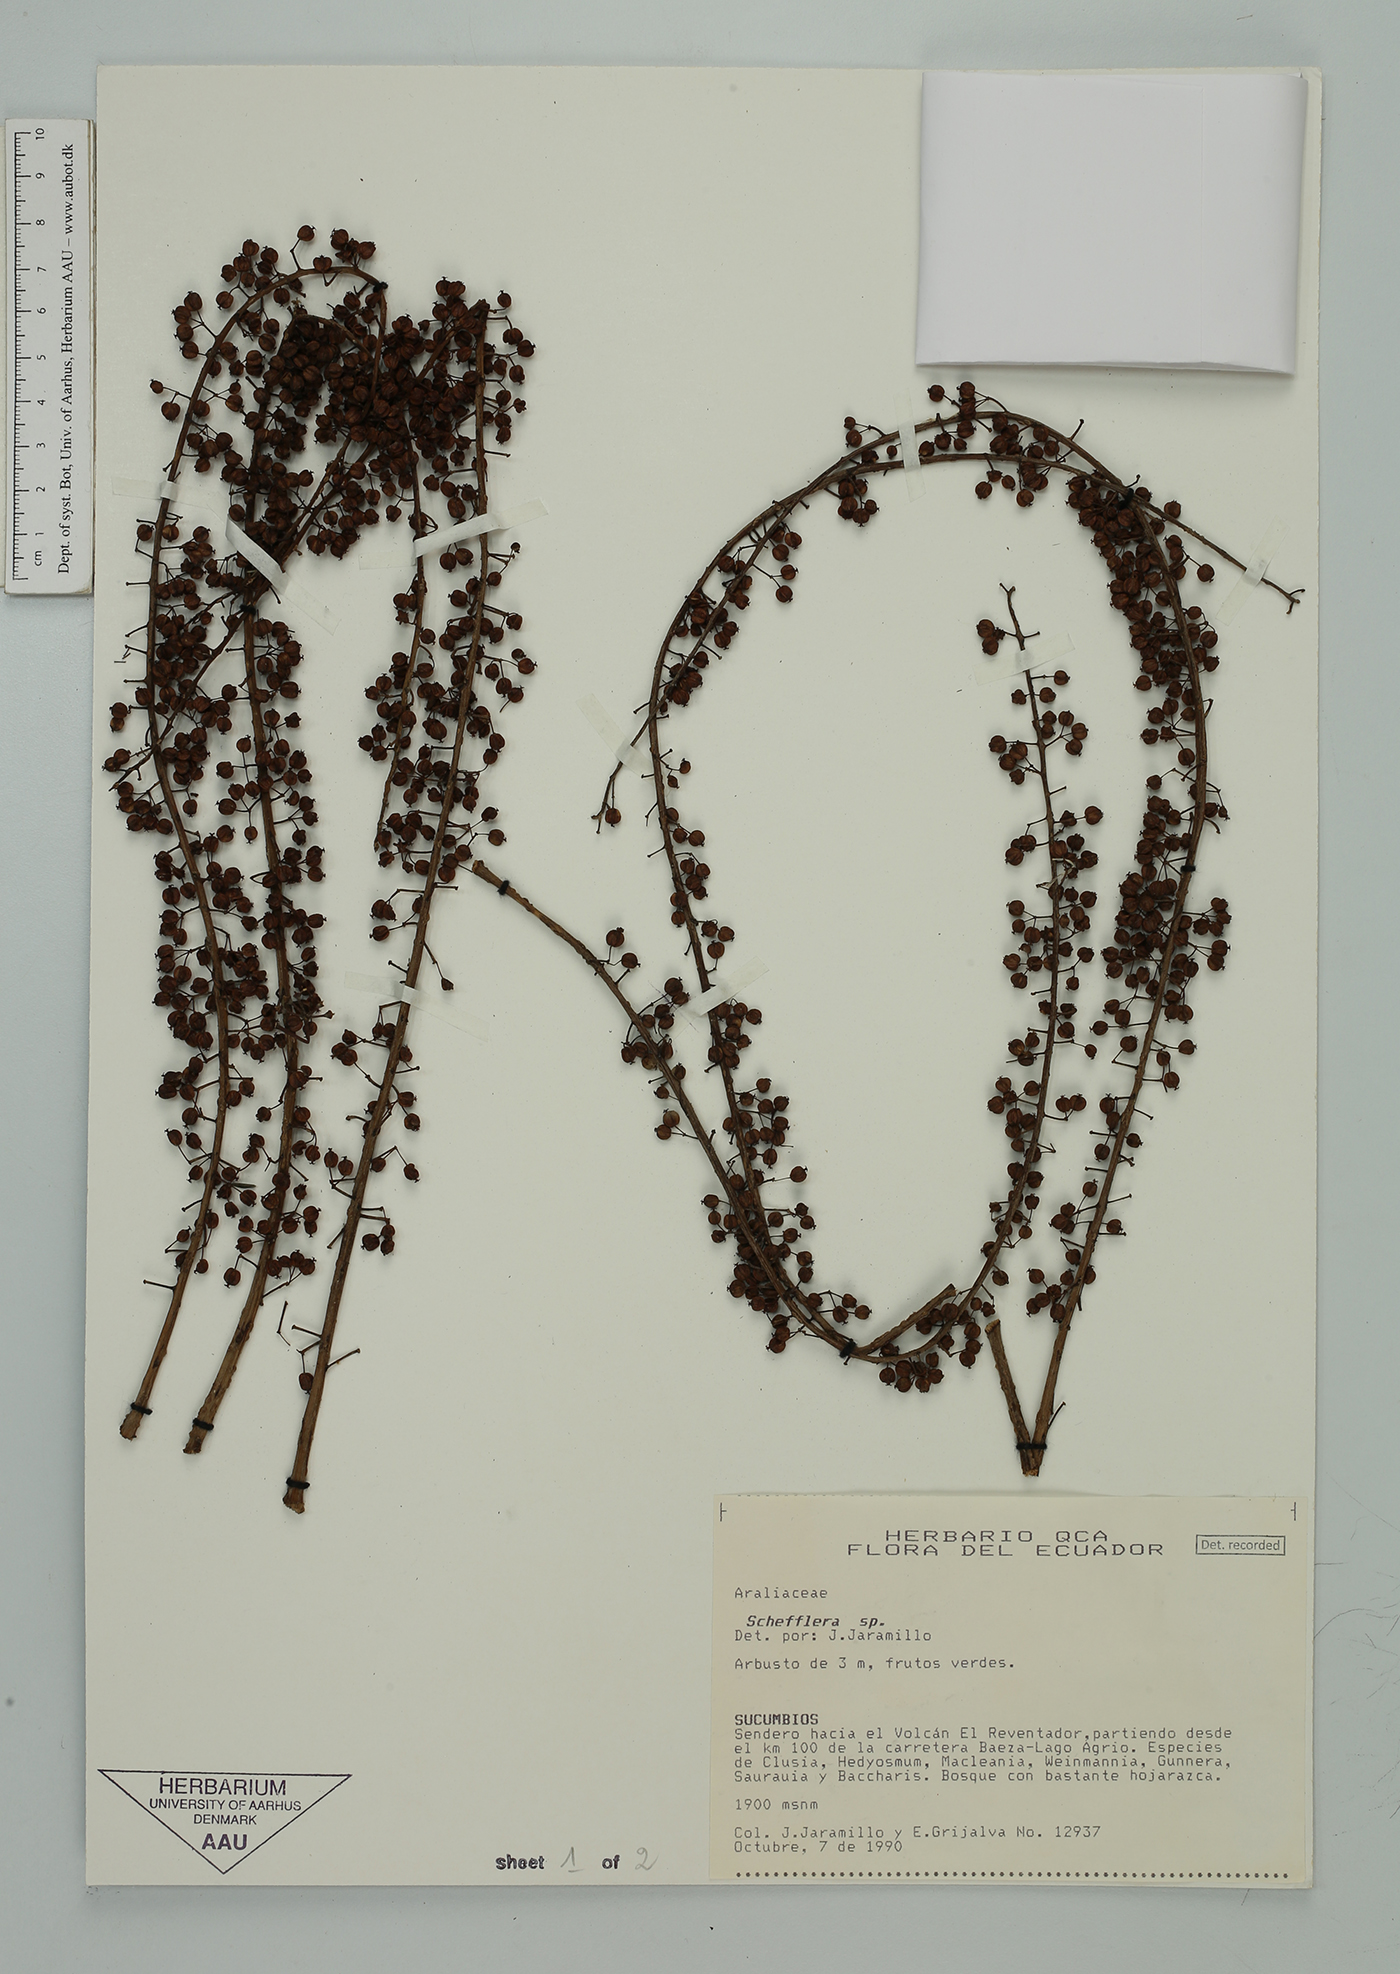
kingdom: Plantae
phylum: Tracheophyta
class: Magnoliopsida
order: Apiales
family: Araliaceae
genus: Sciodaphyllum
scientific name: Sciodaphyllum minutiflorum
